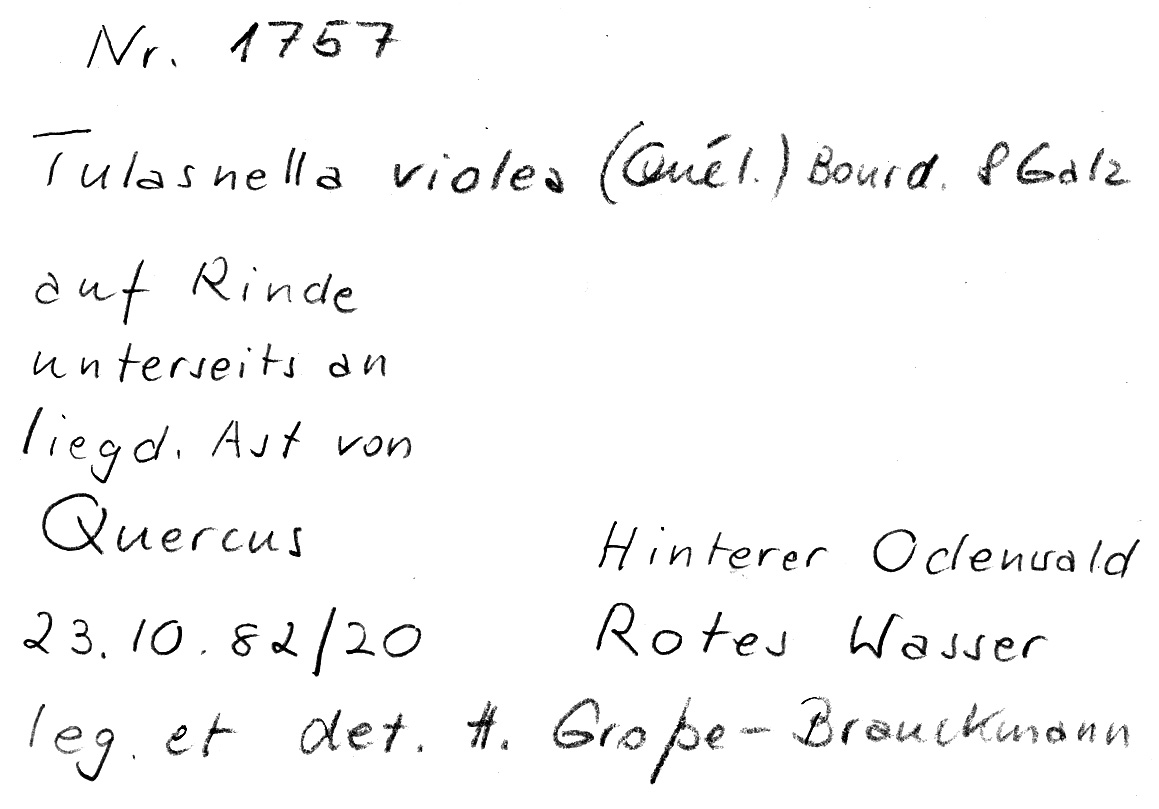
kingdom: Fungi
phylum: Basidiomycota
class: Agaricomycetes
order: Cantharellales
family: Tulasnellaceae
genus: Tulasnella
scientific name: Tulasnella violea
